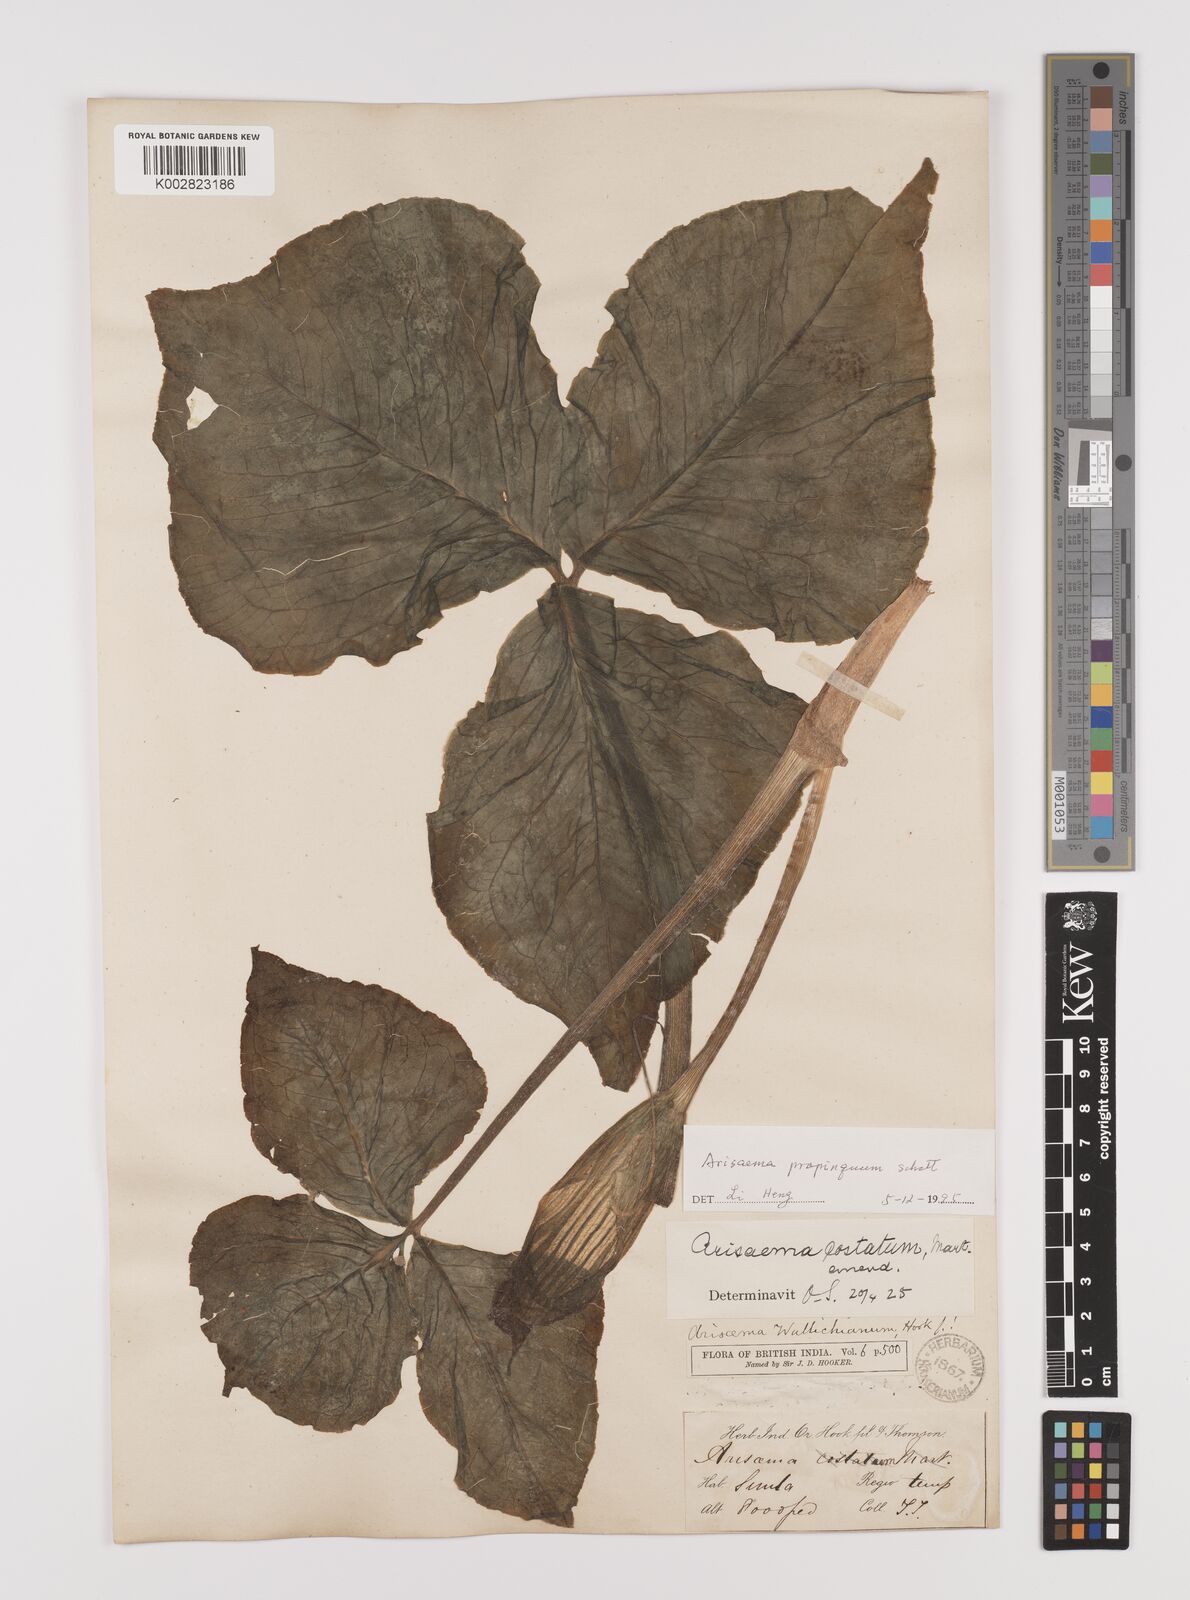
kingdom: Plantae
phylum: Tracheophyta
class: Liliopsida
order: Alismatales
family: Araceae
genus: Arisaema
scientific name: Arisaema propinquum
